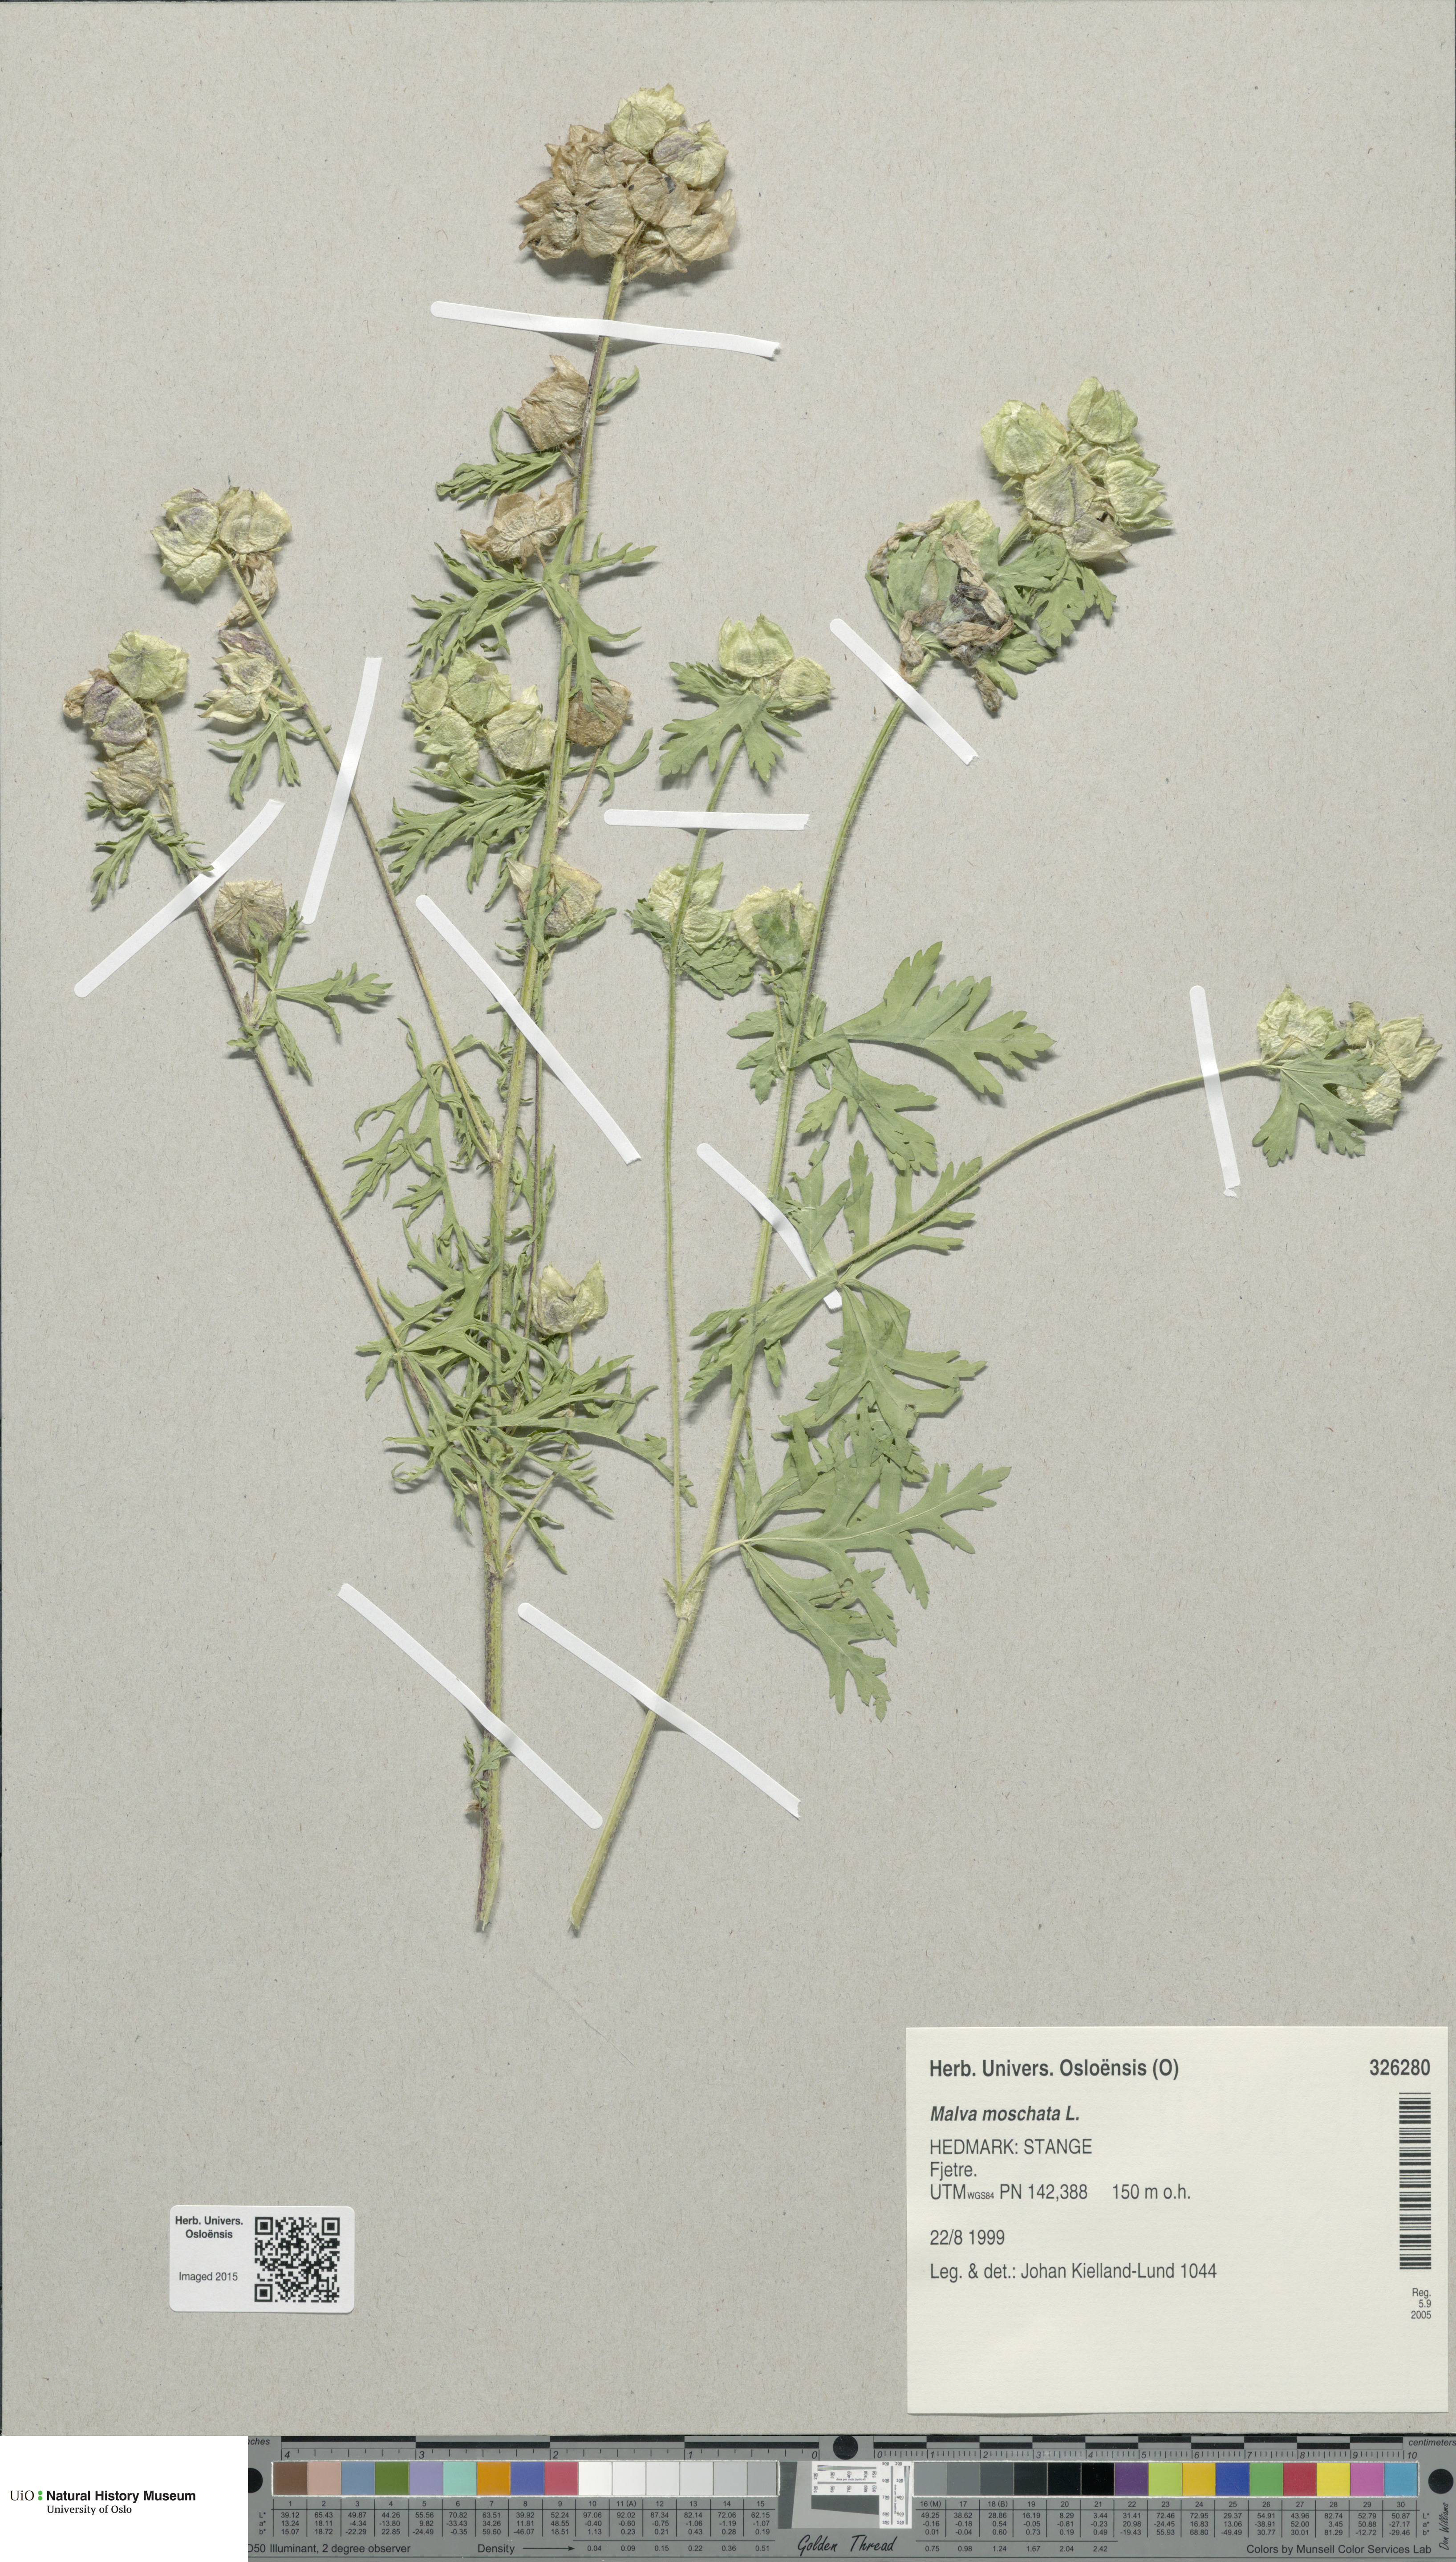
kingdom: Plantae
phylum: Tracheophyta
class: Magnoliopsida
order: Malvales
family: Malvaceae
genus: Malva
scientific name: Malva moschata
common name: Musk mallow
